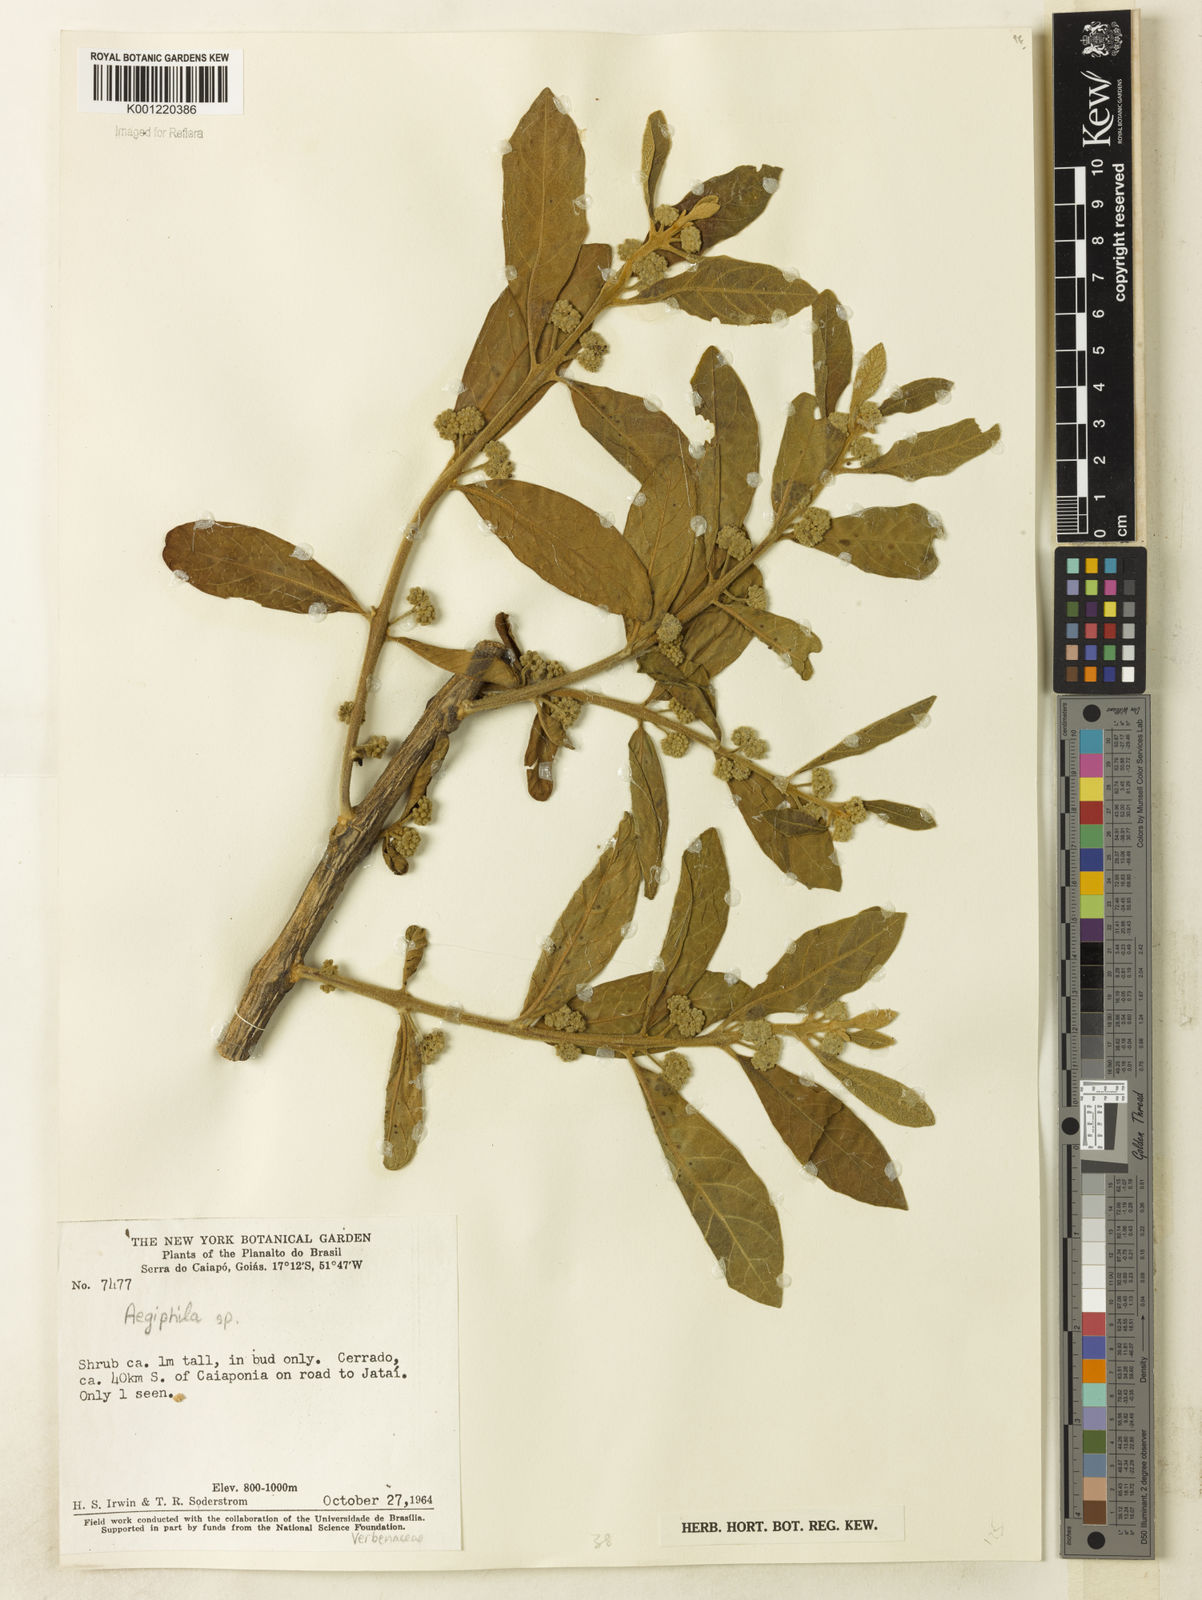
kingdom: Plantae
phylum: Tracheophyta
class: Magnoliopsida
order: Lamiales
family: Lamiaceae
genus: Aegiphila
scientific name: Aegiphila
